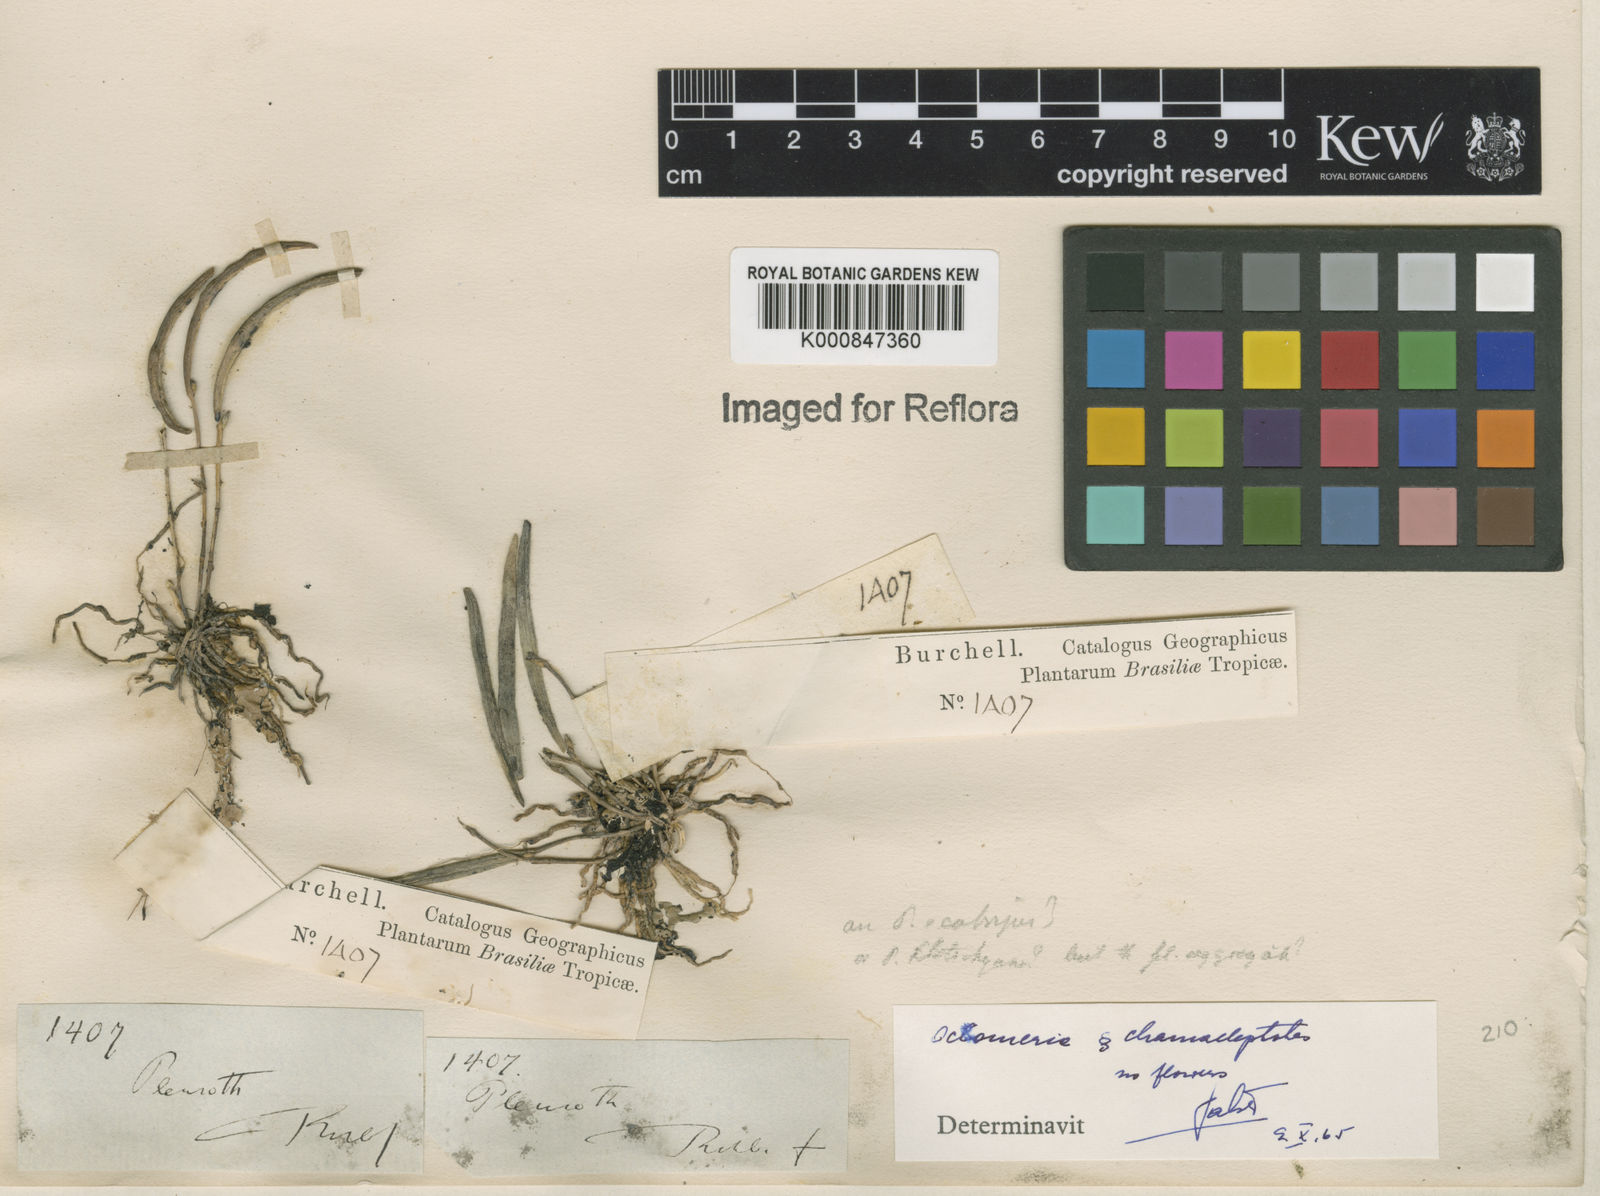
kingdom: Plantae
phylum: Tracheophyta
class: Liliopsida
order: Asparagales
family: Orchidaceae
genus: Octomeria
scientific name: Octomeria chamaeleptotes
